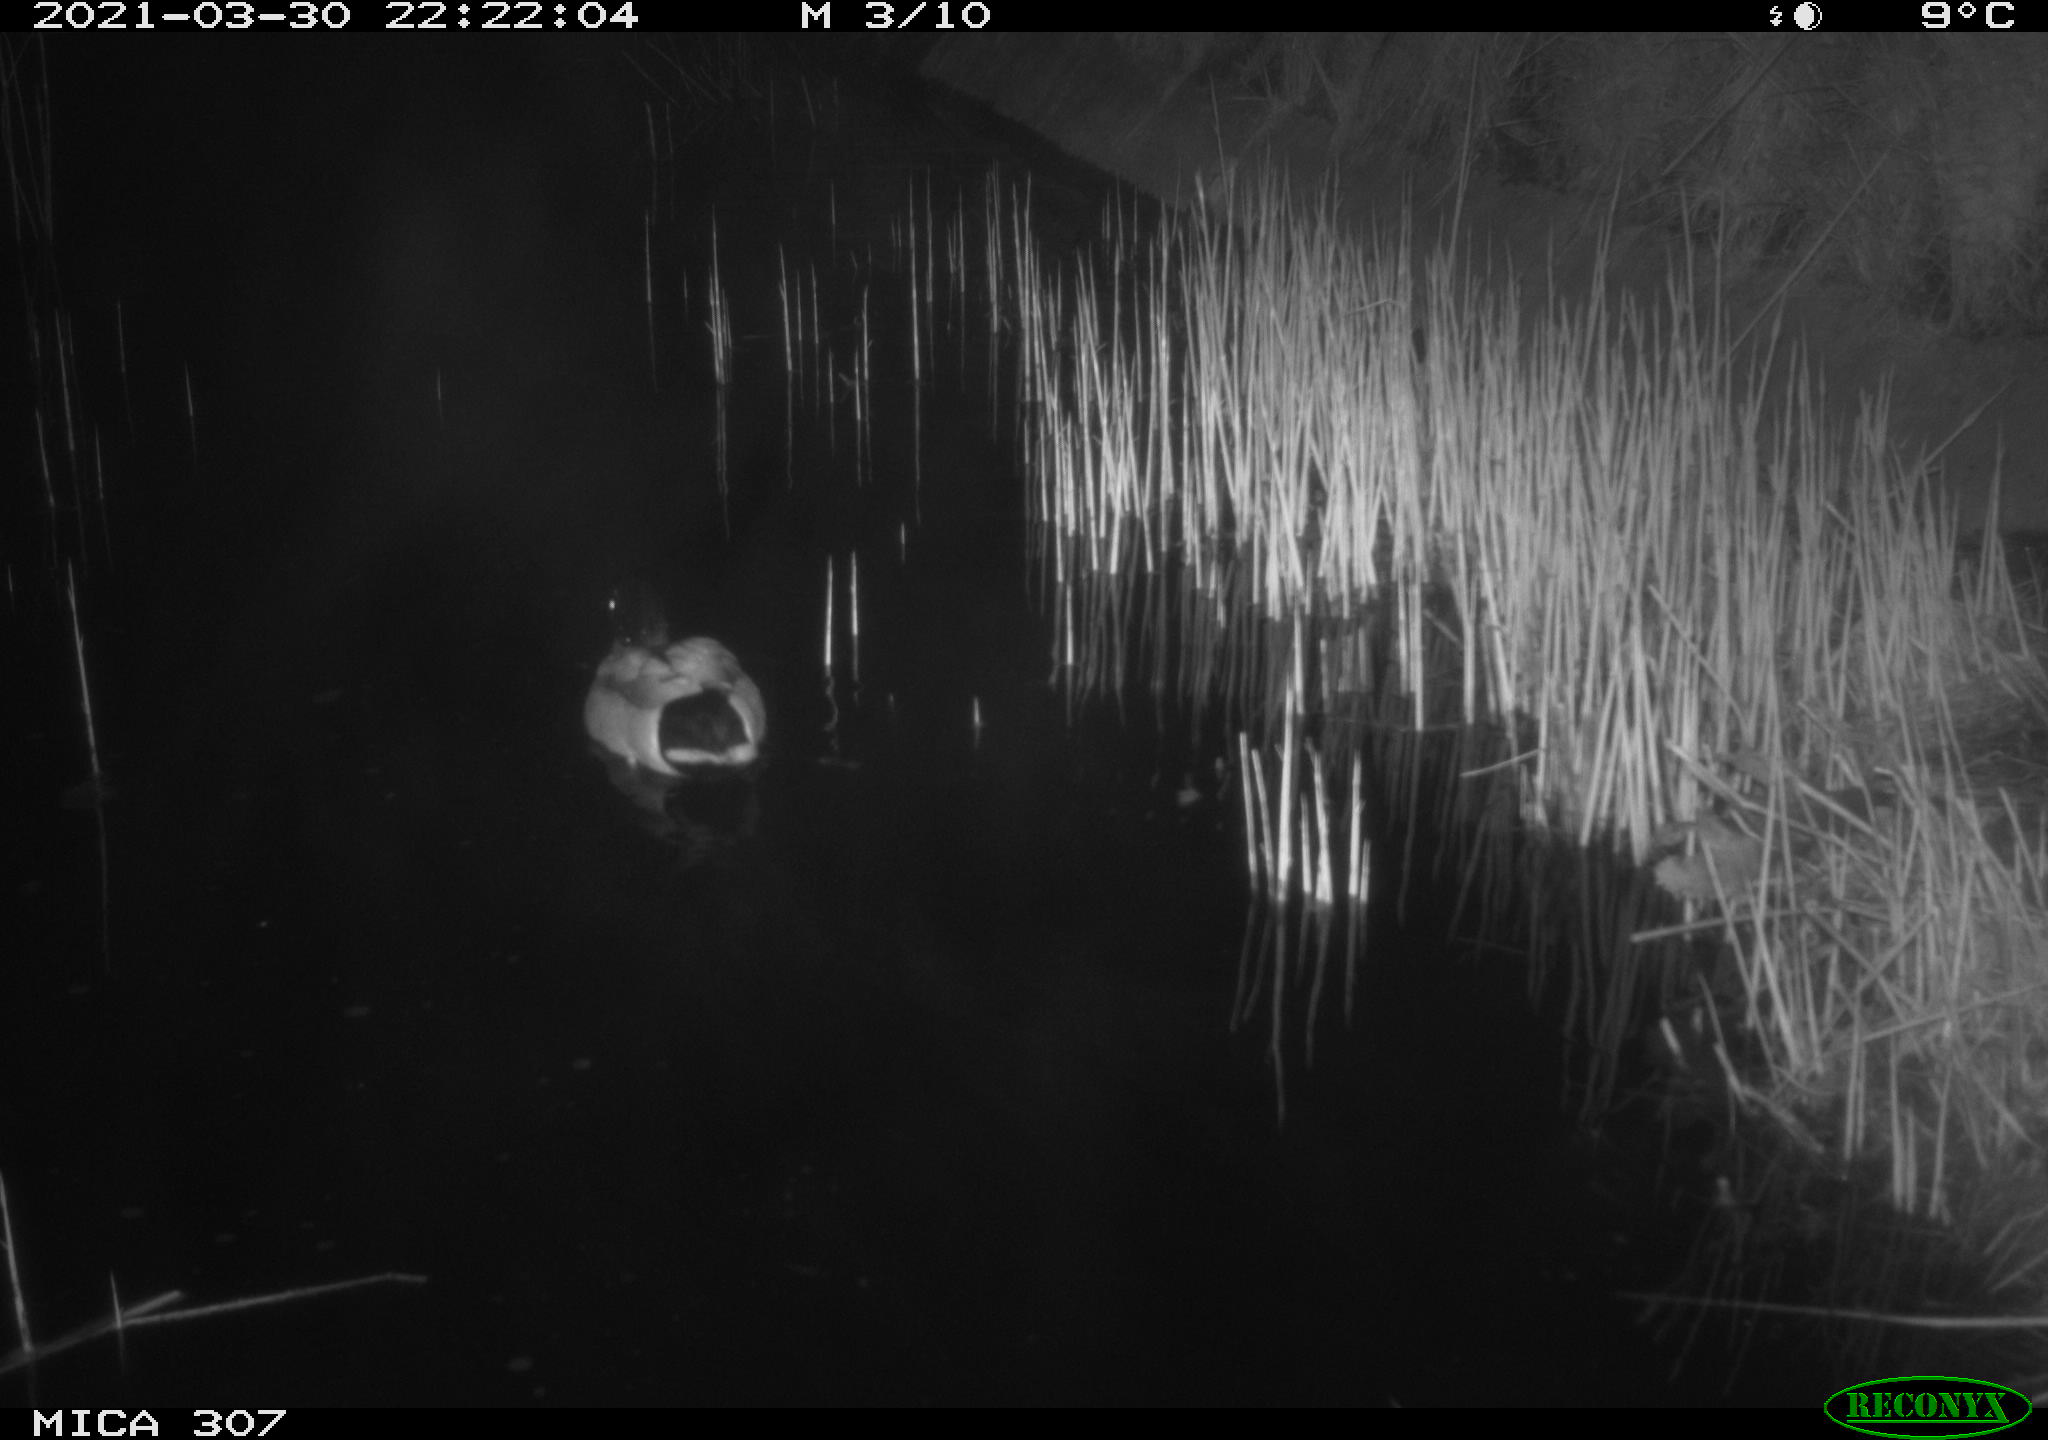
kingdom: Animalia
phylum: Chordata
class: Aves
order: Anseriformes
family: Anatidae
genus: Anas
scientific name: Anas platyrhynchos
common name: Mallard
